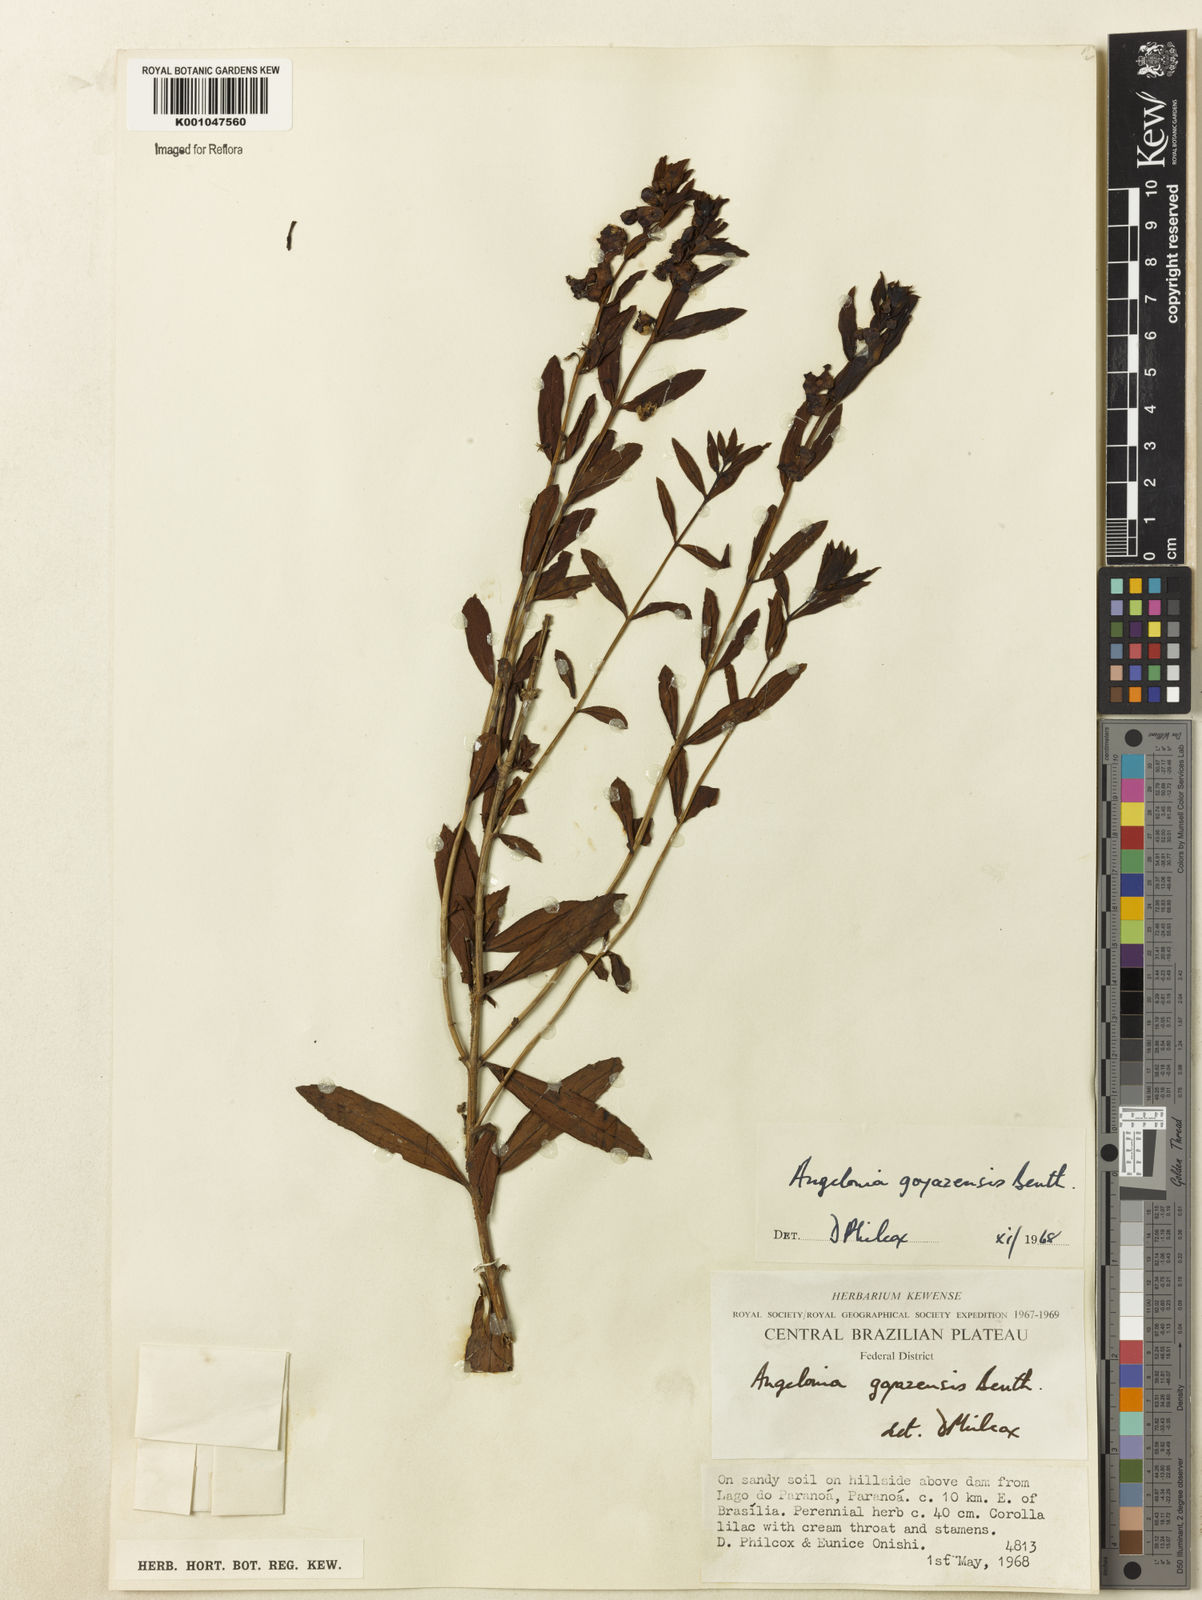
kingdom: Plantae
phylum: Tracheophyta
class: Magnoliopsida
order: Lamiales
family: Plantaginaceae
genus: Angelonia
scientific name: Angelonia goyazensis
